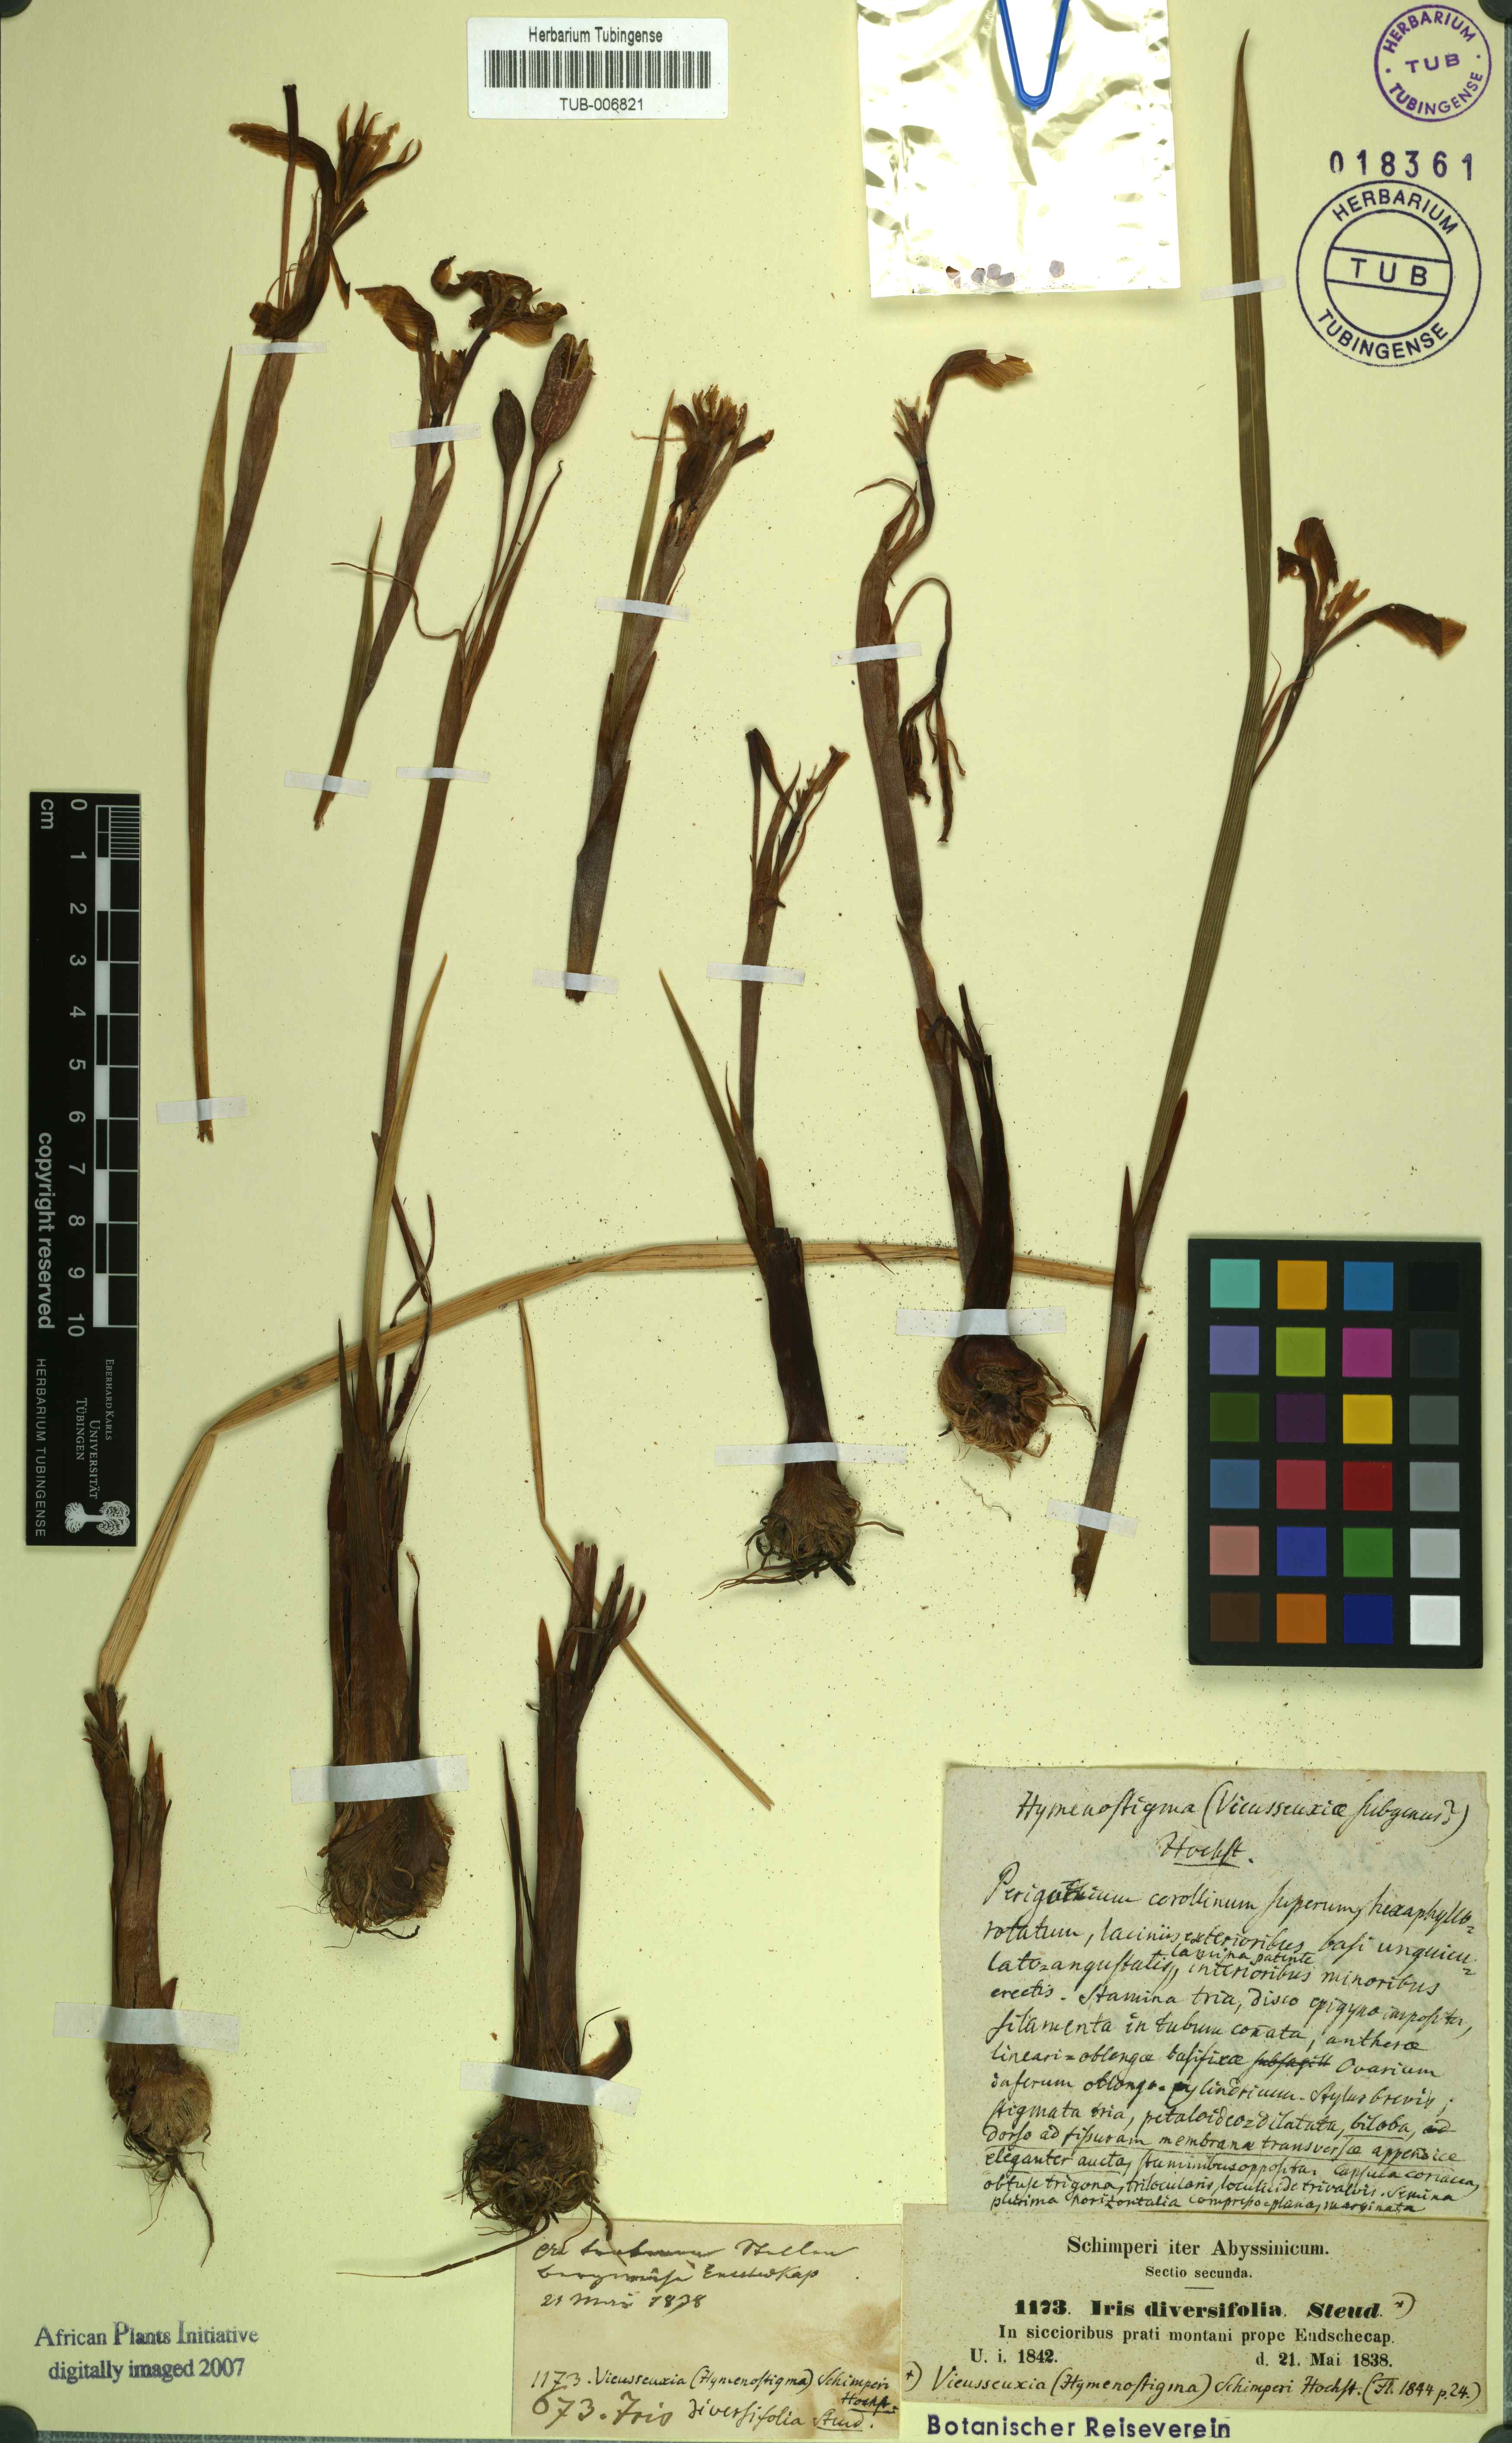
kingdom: Plantae
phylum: Tracheophyta
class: Liliopsida
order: Asparagales
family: Iridaceae
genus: Moraea
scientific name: Moraea schimperi
